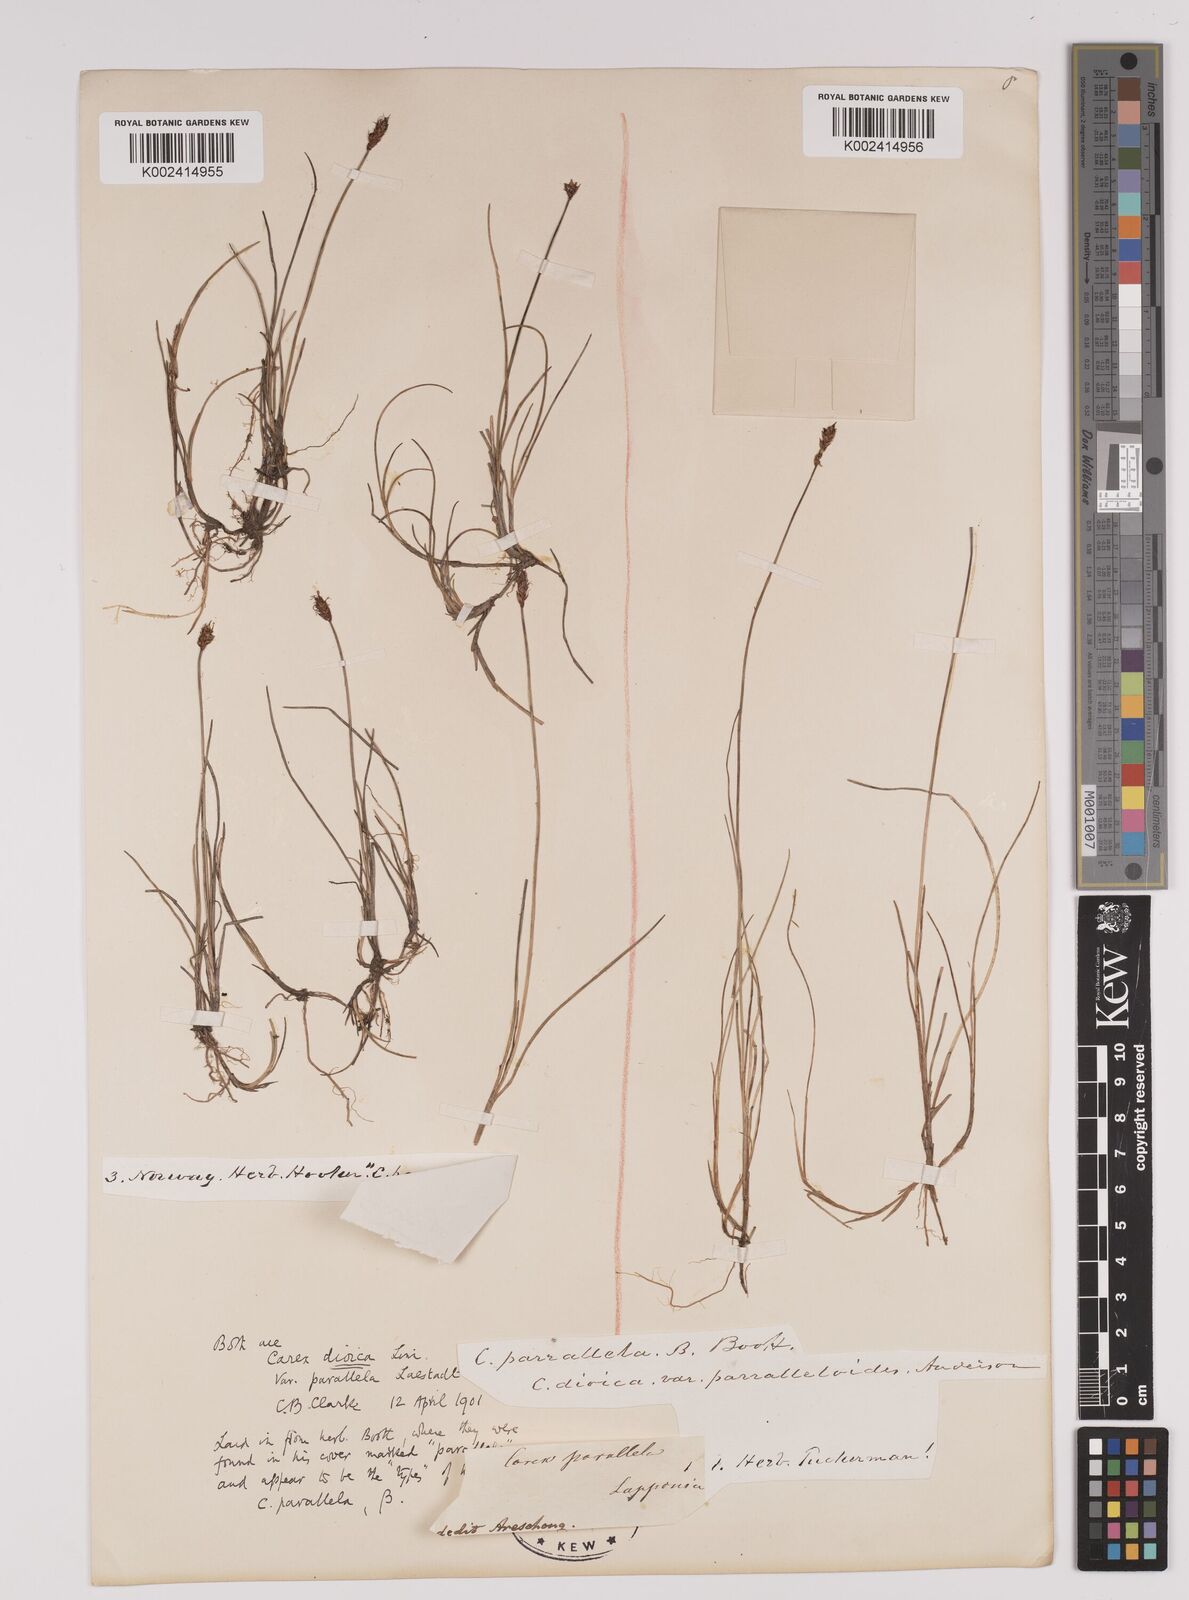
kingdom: Plantae
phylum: Tracheophyta
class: Liliopsida
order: Poales
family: Cyperaceae
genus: Carex
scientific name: Carex dioica
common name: Dioecious sedge
